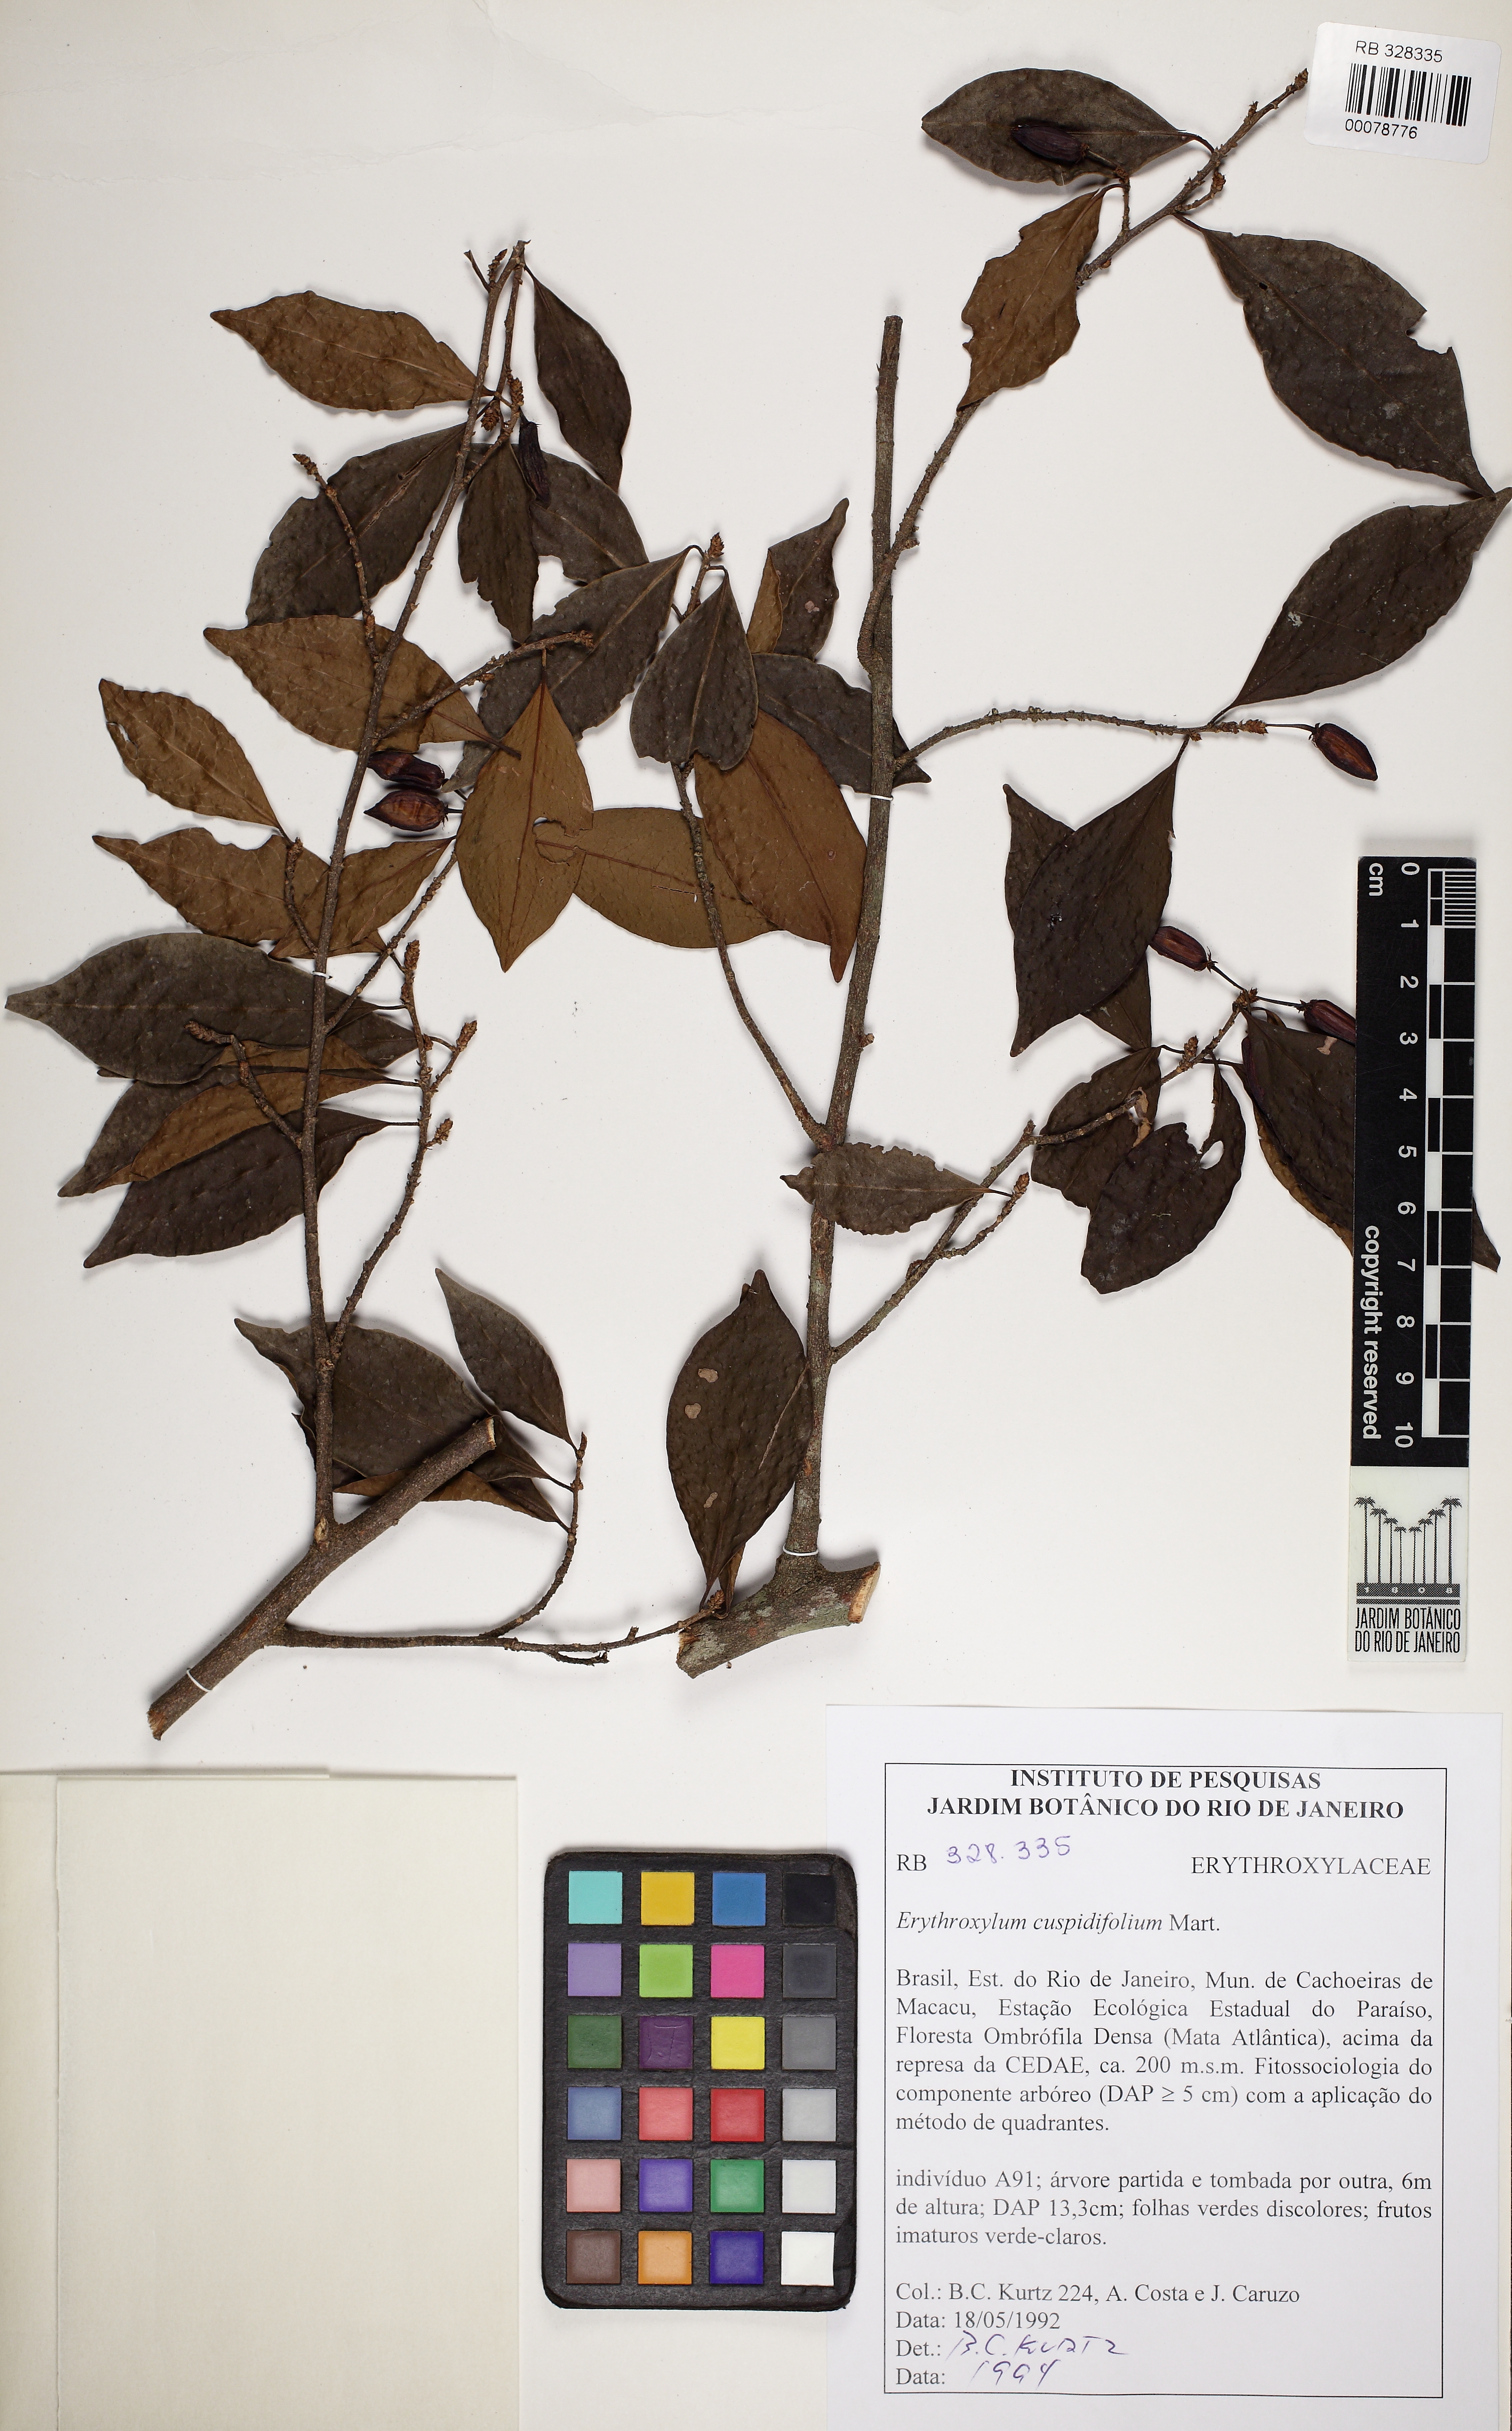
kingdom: Plantae
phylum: Tracheophyta
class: Magnoliopsida
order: Malpighiales
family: Erythroxylaceae
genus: Erythroxylum
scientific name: Erythroxylum cuspidifolium
